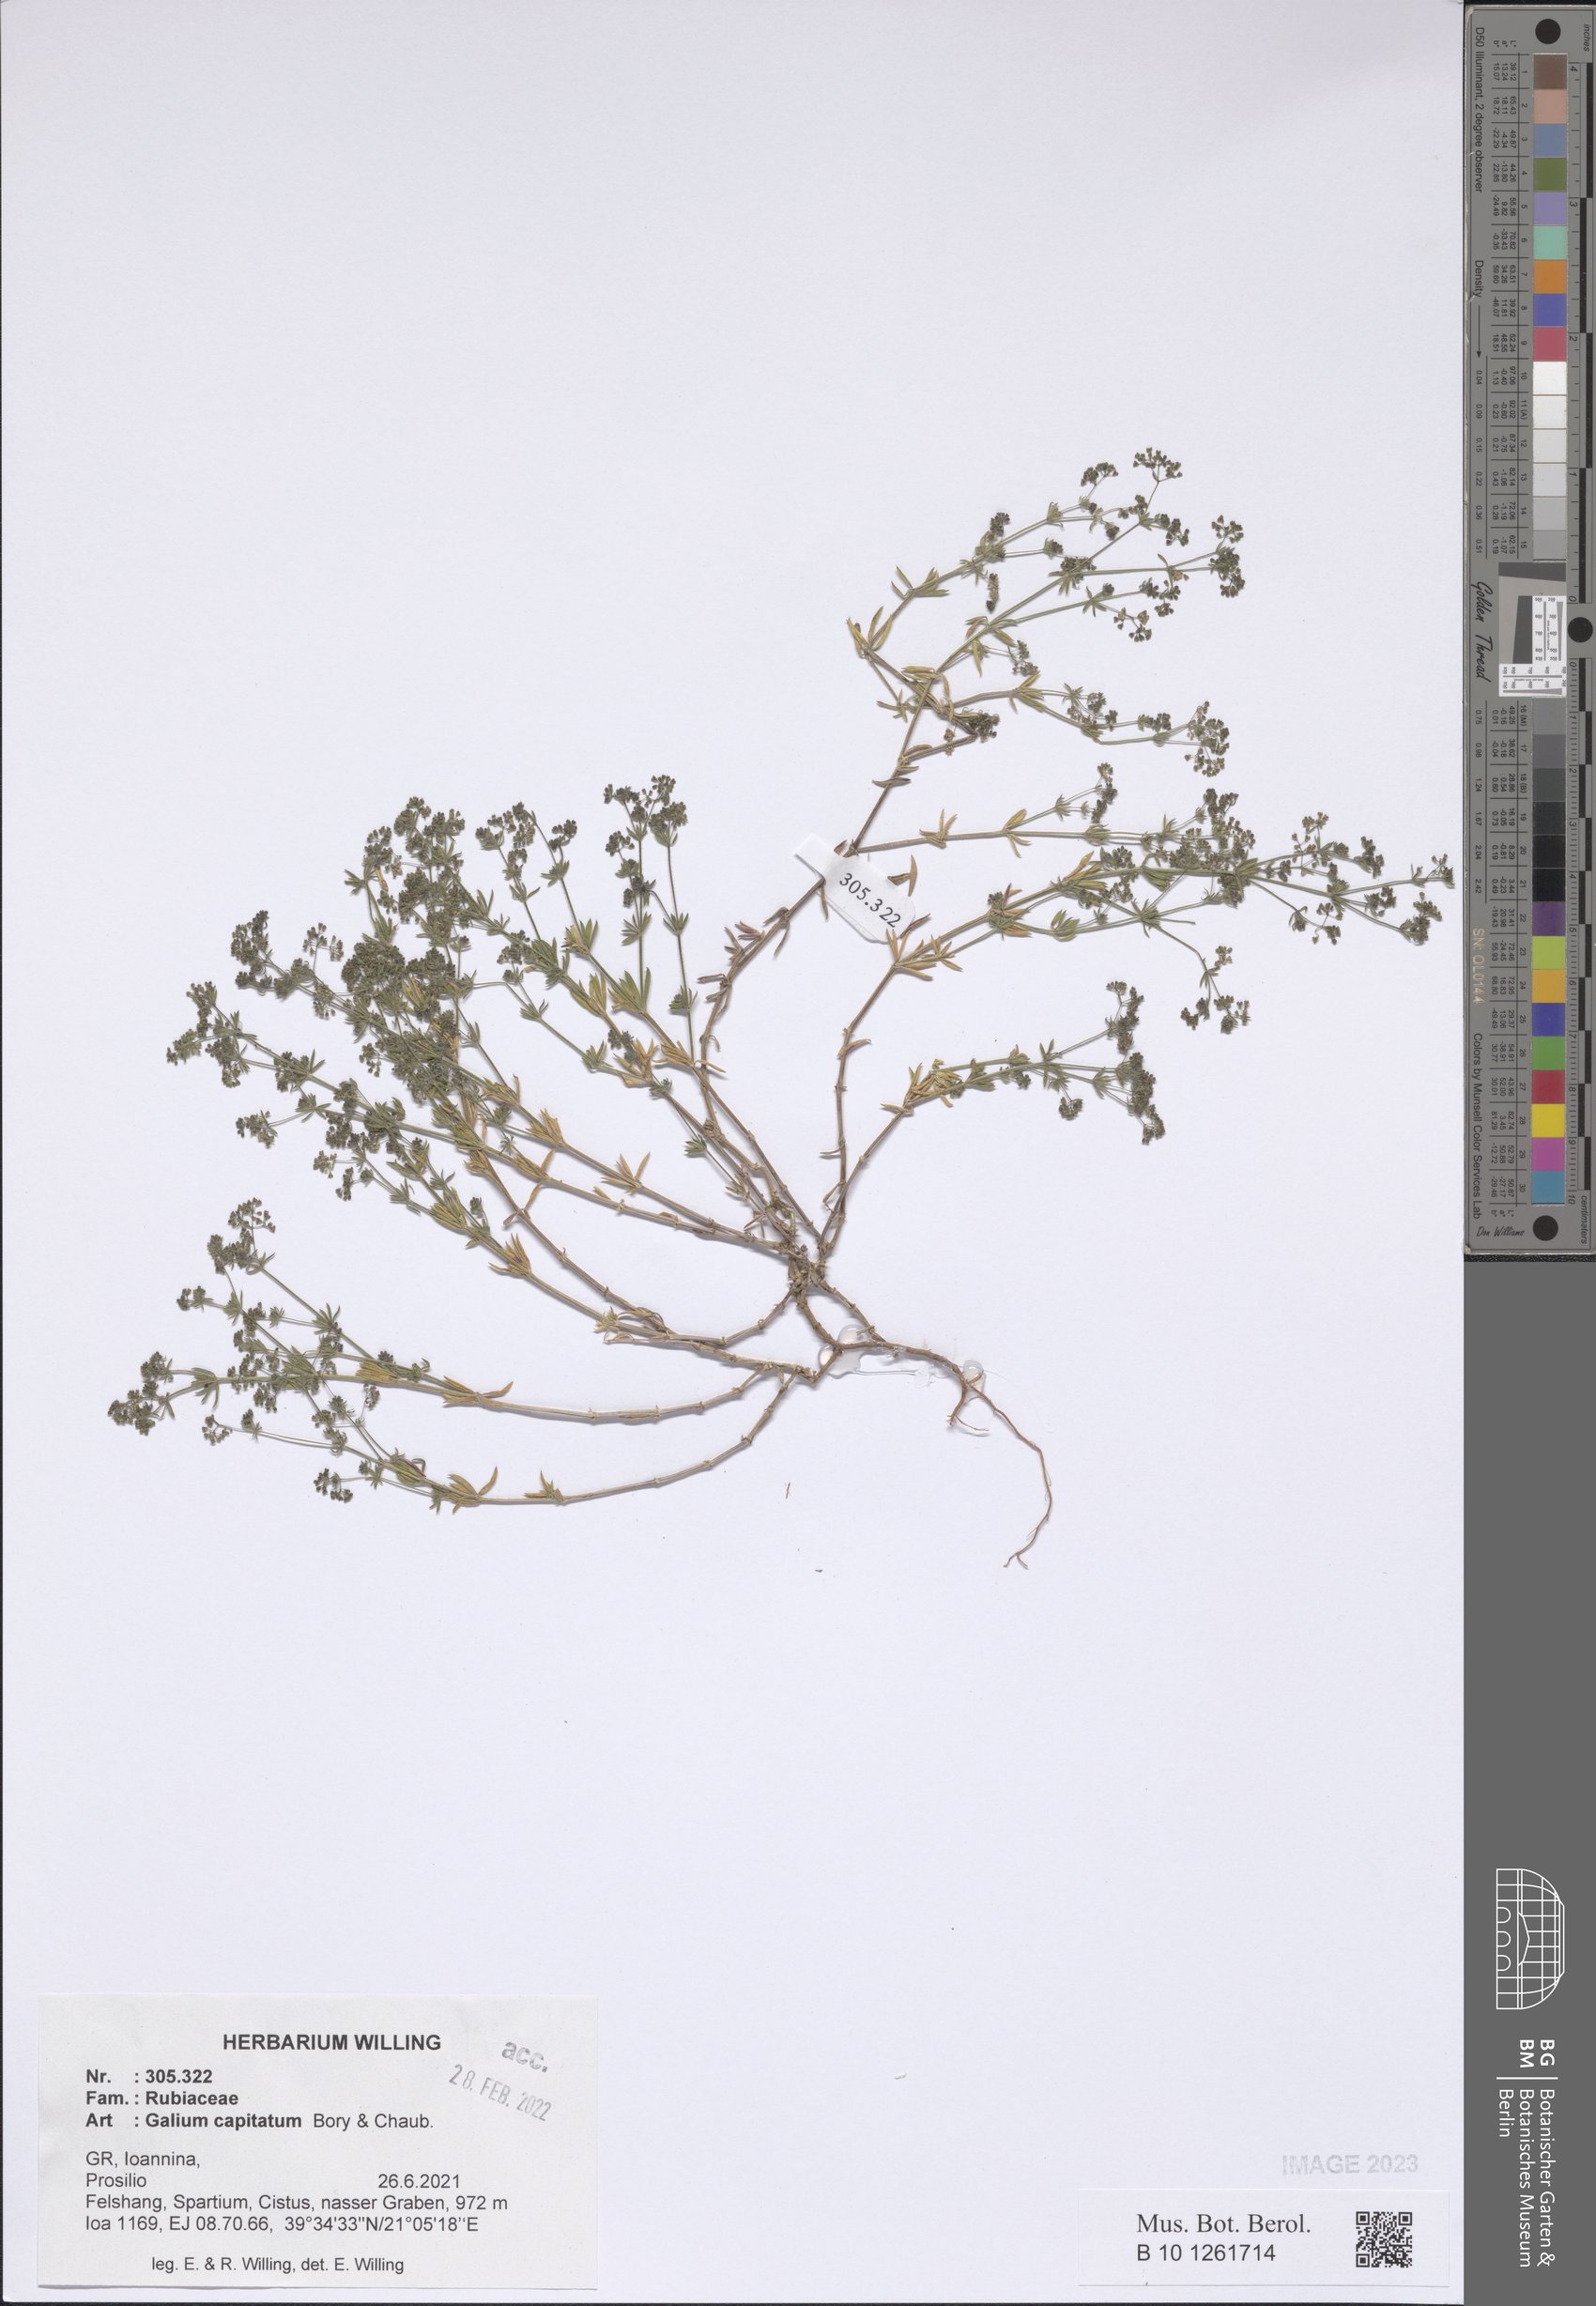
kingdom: Plantae
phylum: Tracheophyta
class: Magnoliopsida
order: Gentianales
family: Rubiaceae
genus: Galium
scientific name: Galium capitatum
